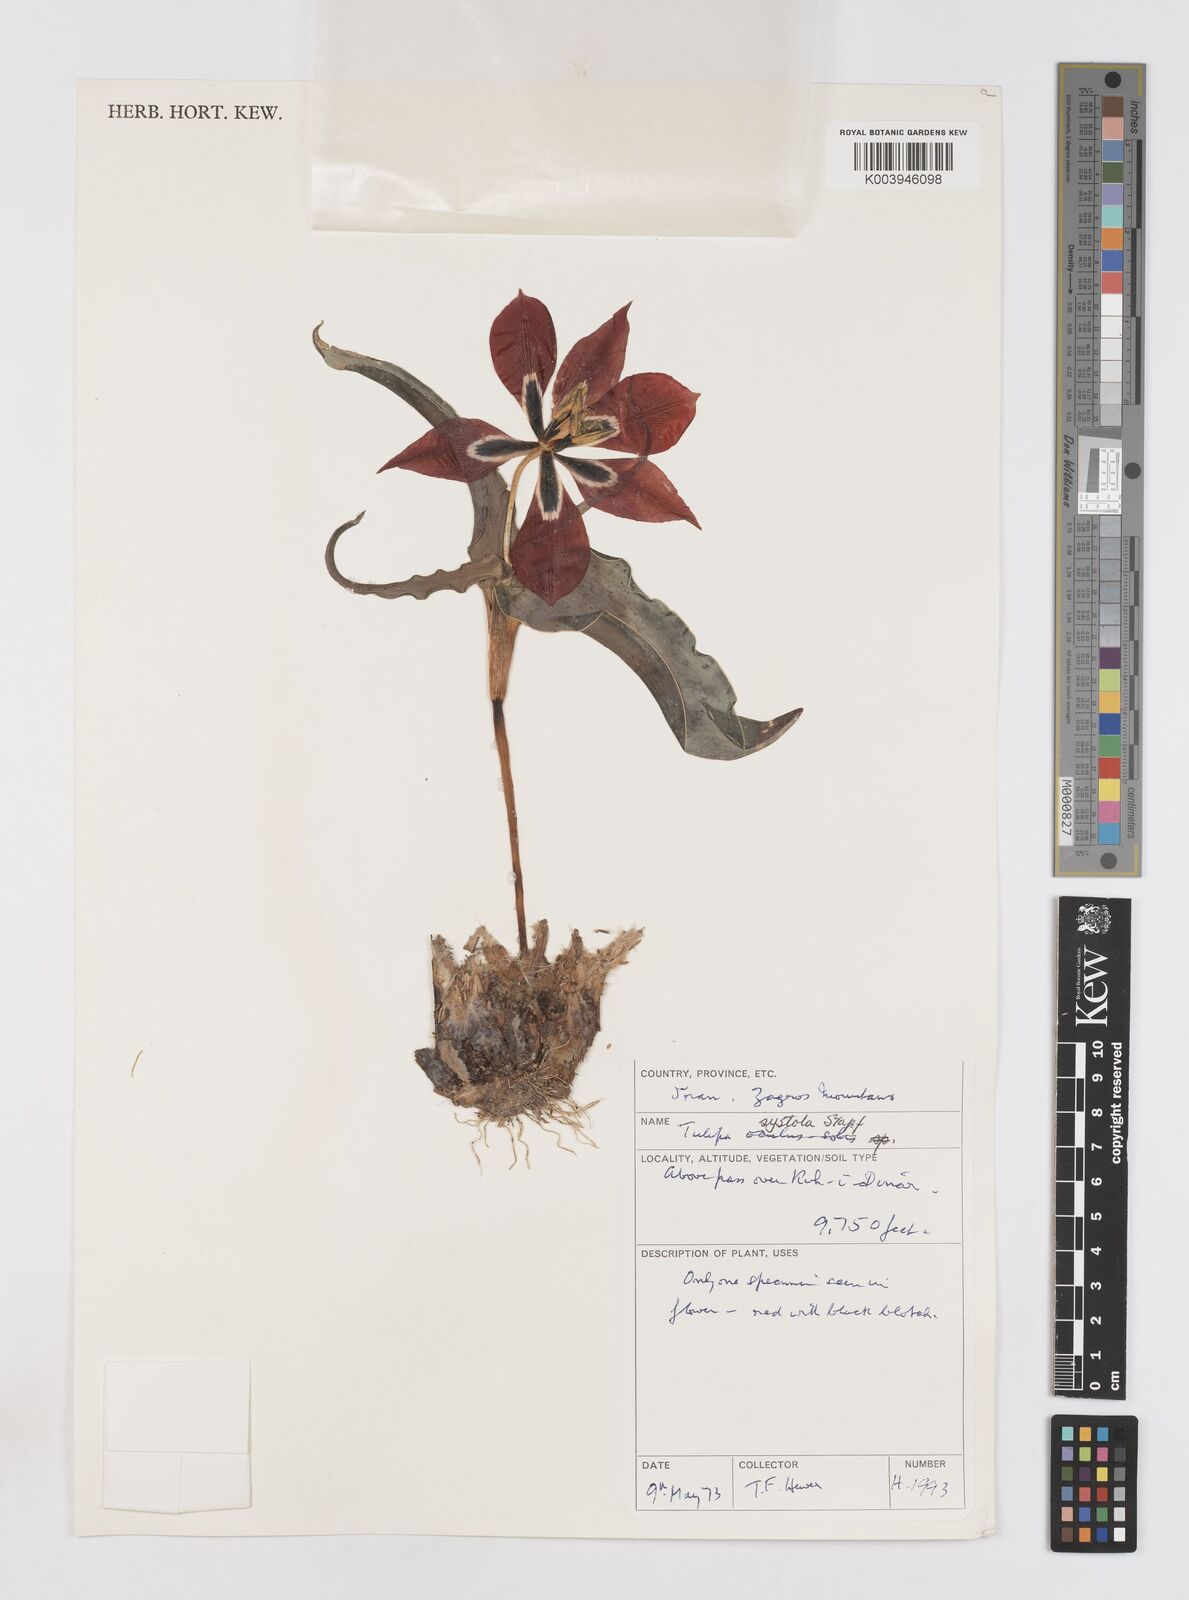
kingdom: Plantae
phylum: Tracheophyta
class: Liliopsida
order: Liliales
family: Liliaceae
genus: Tulipa
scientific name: Tulipa systola
